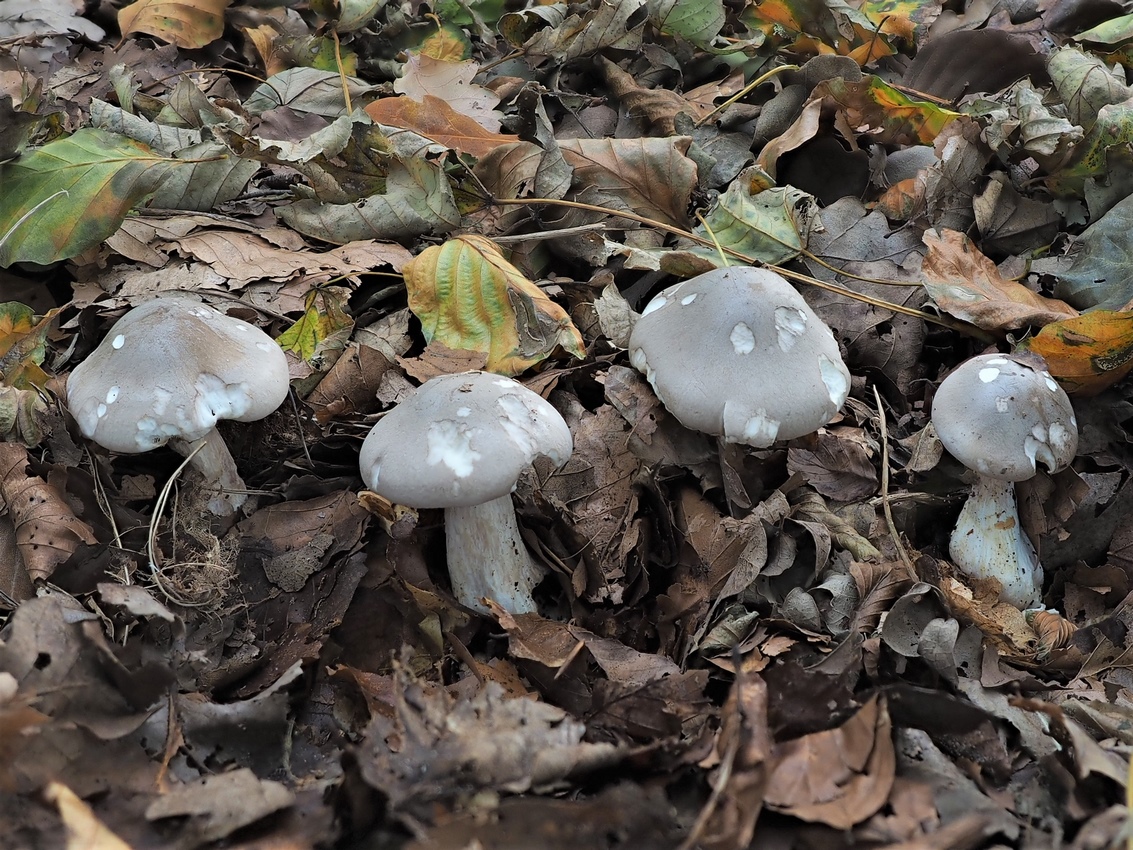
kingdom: Fungi
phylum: Basidiomycota
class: Agaricomycetes
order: Agaricales
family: Tricholomataceae
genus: Clitocybe
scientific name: Clitocybe nebularis
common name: tåge-tragthat
